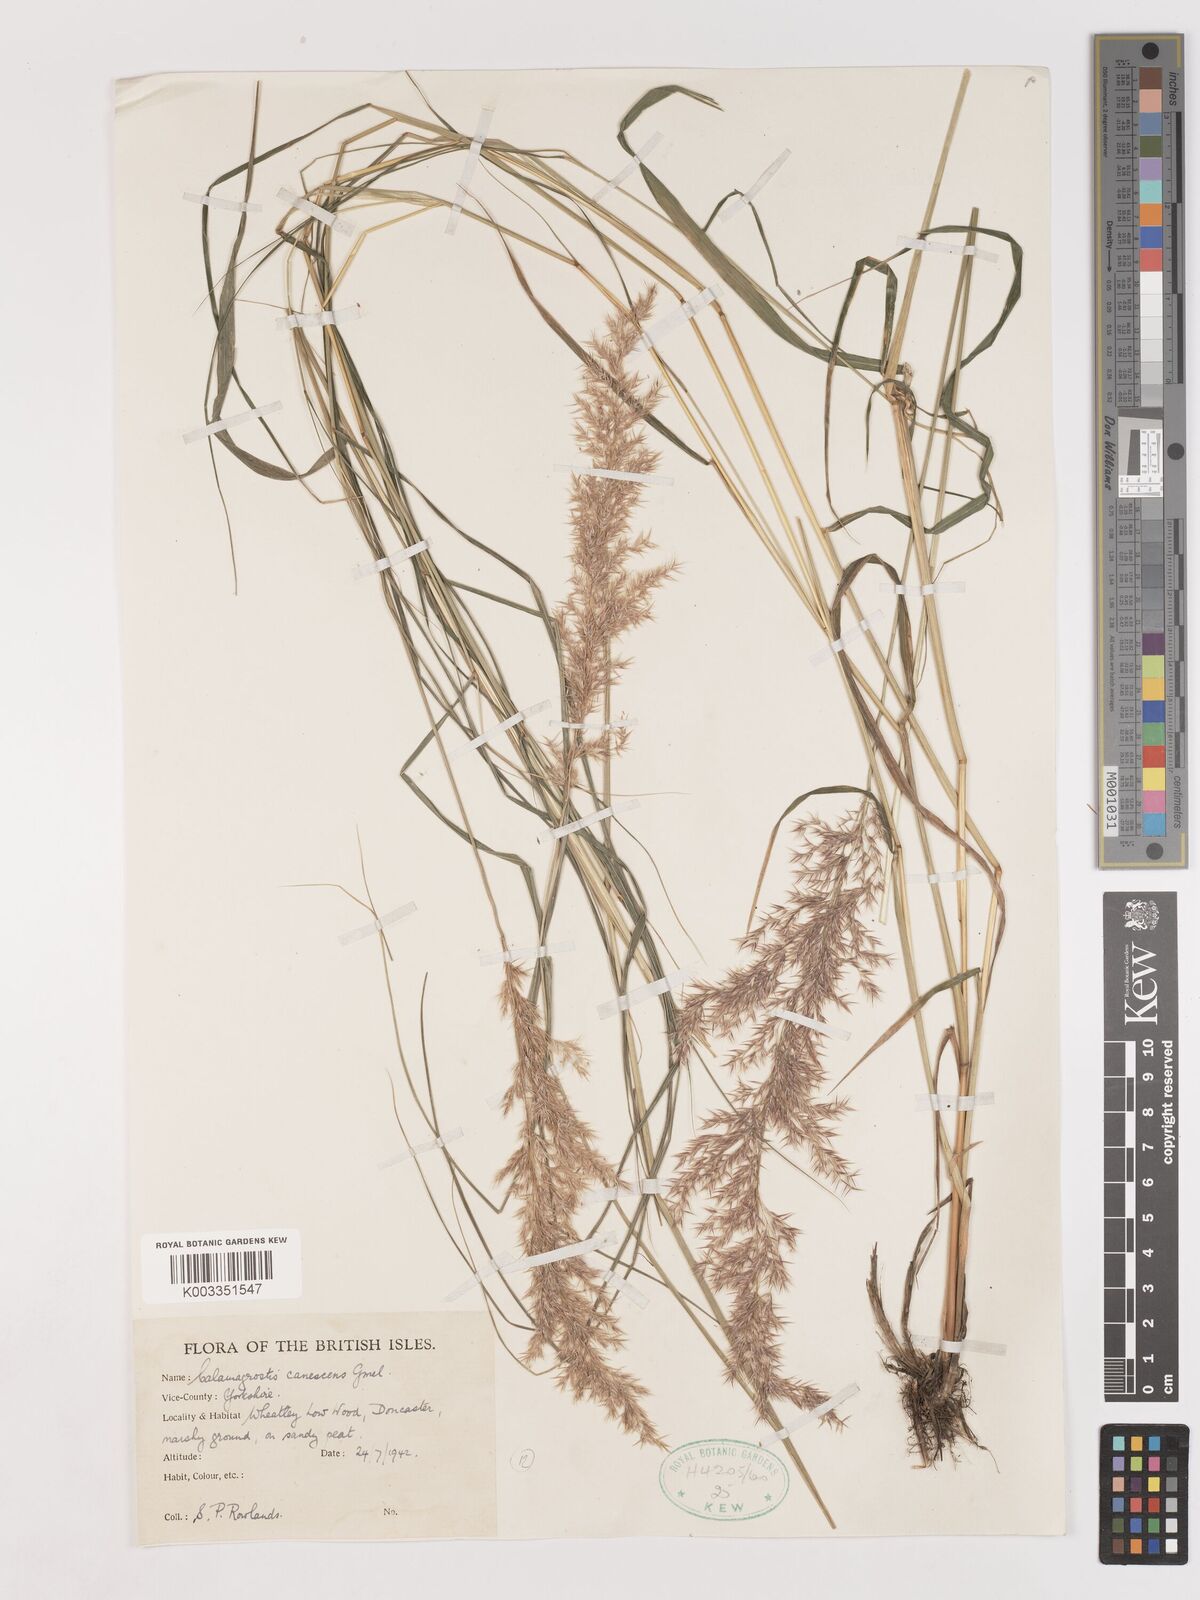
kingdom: Plantae
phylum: Tracheophyta
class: Liliopsida
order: Poales
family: Poaceae
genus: Calamagrostis
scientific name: Calamagrostis canescens
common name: Purple small-reed
